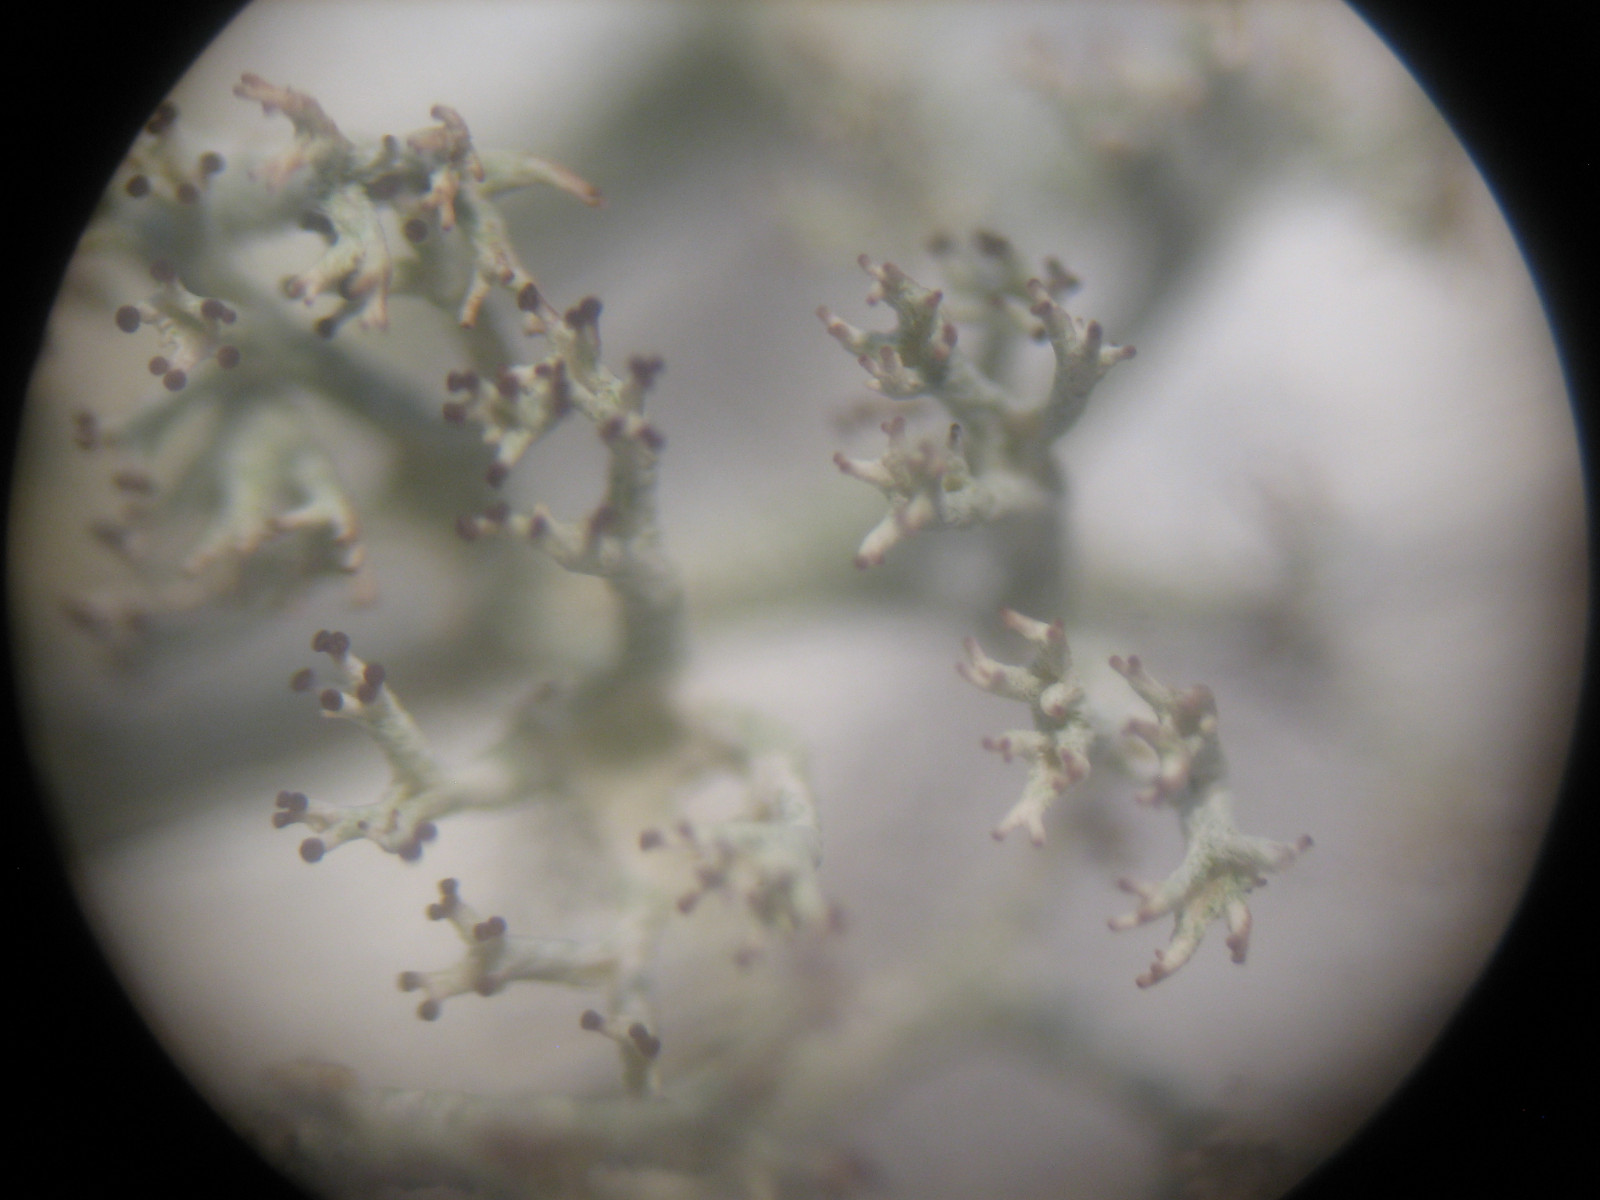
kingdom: Fungi
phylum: Ascomycota
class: Lecanoromycetes
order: Lecanorales
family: Cladoniaceae
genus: Cladonia
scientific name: Cladonia mitis
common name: mild rensdyrlav
